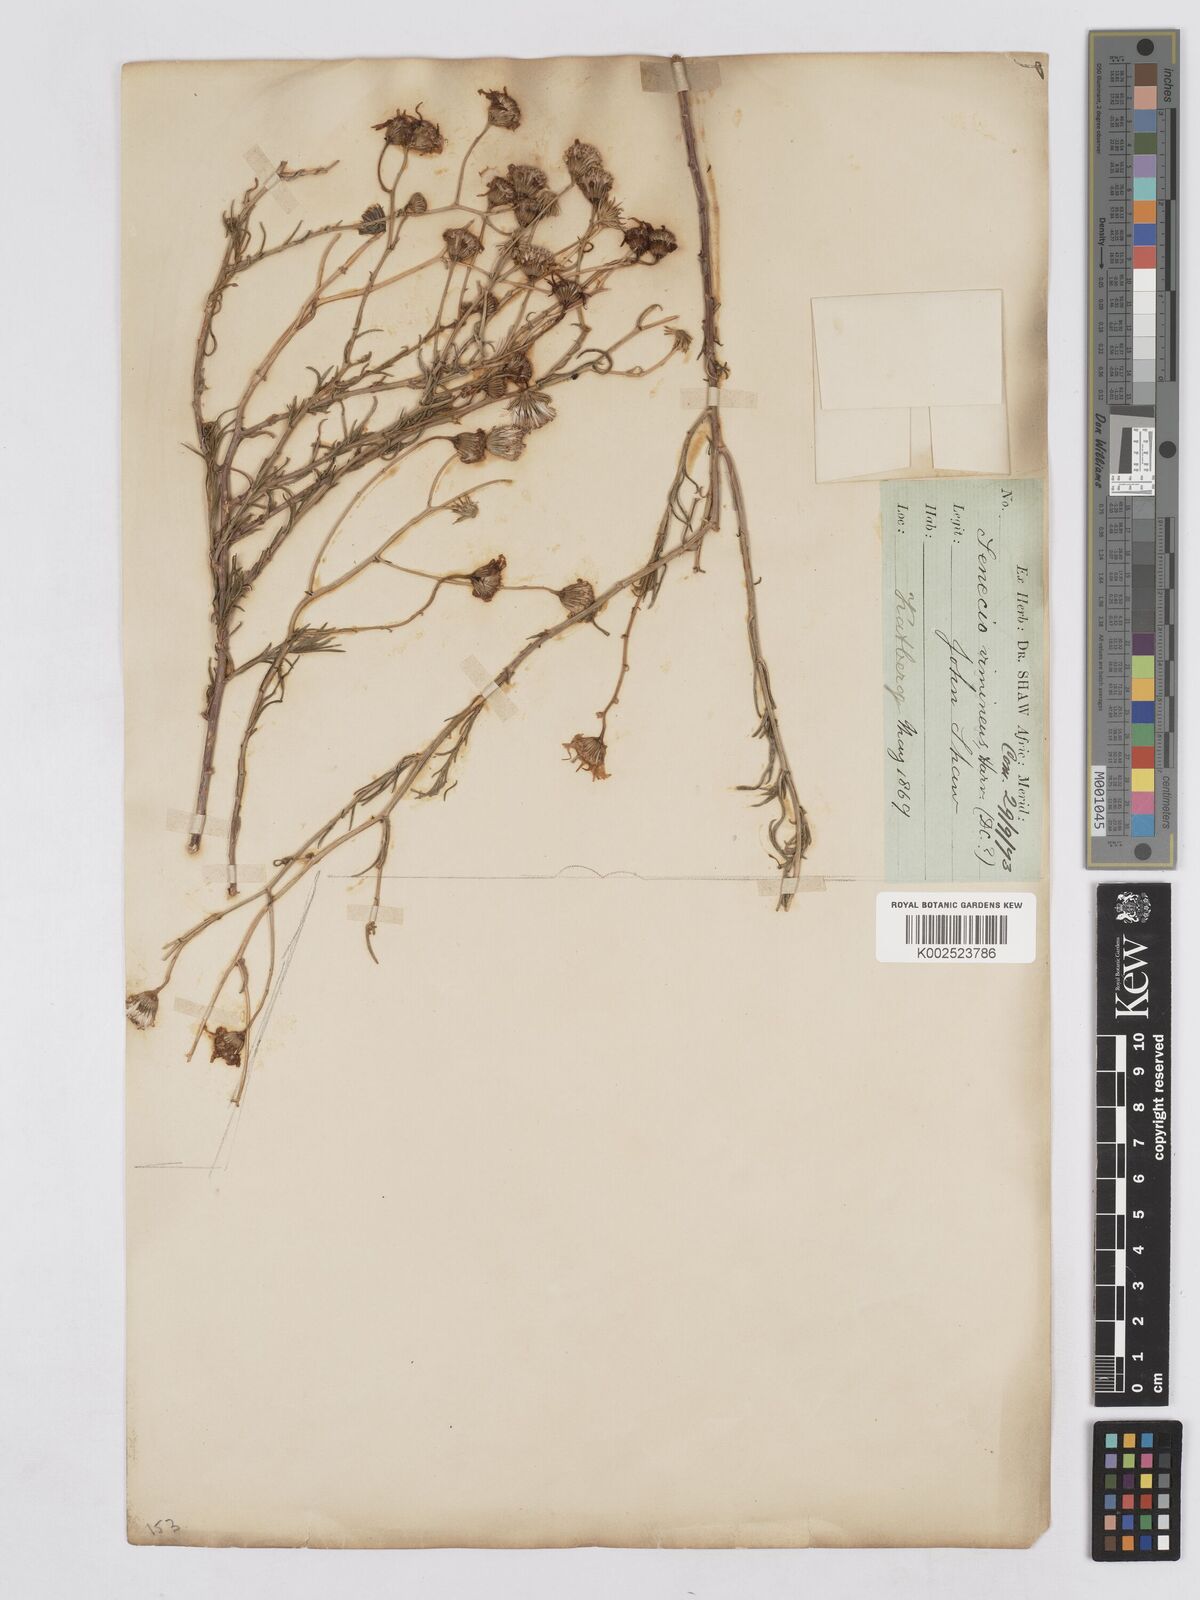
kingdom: Plantae
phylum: Tracheophyta
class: Magnoliopsida
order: Asterales
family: Asteraceae
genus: Senecio
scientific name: Senecio harveyanus
